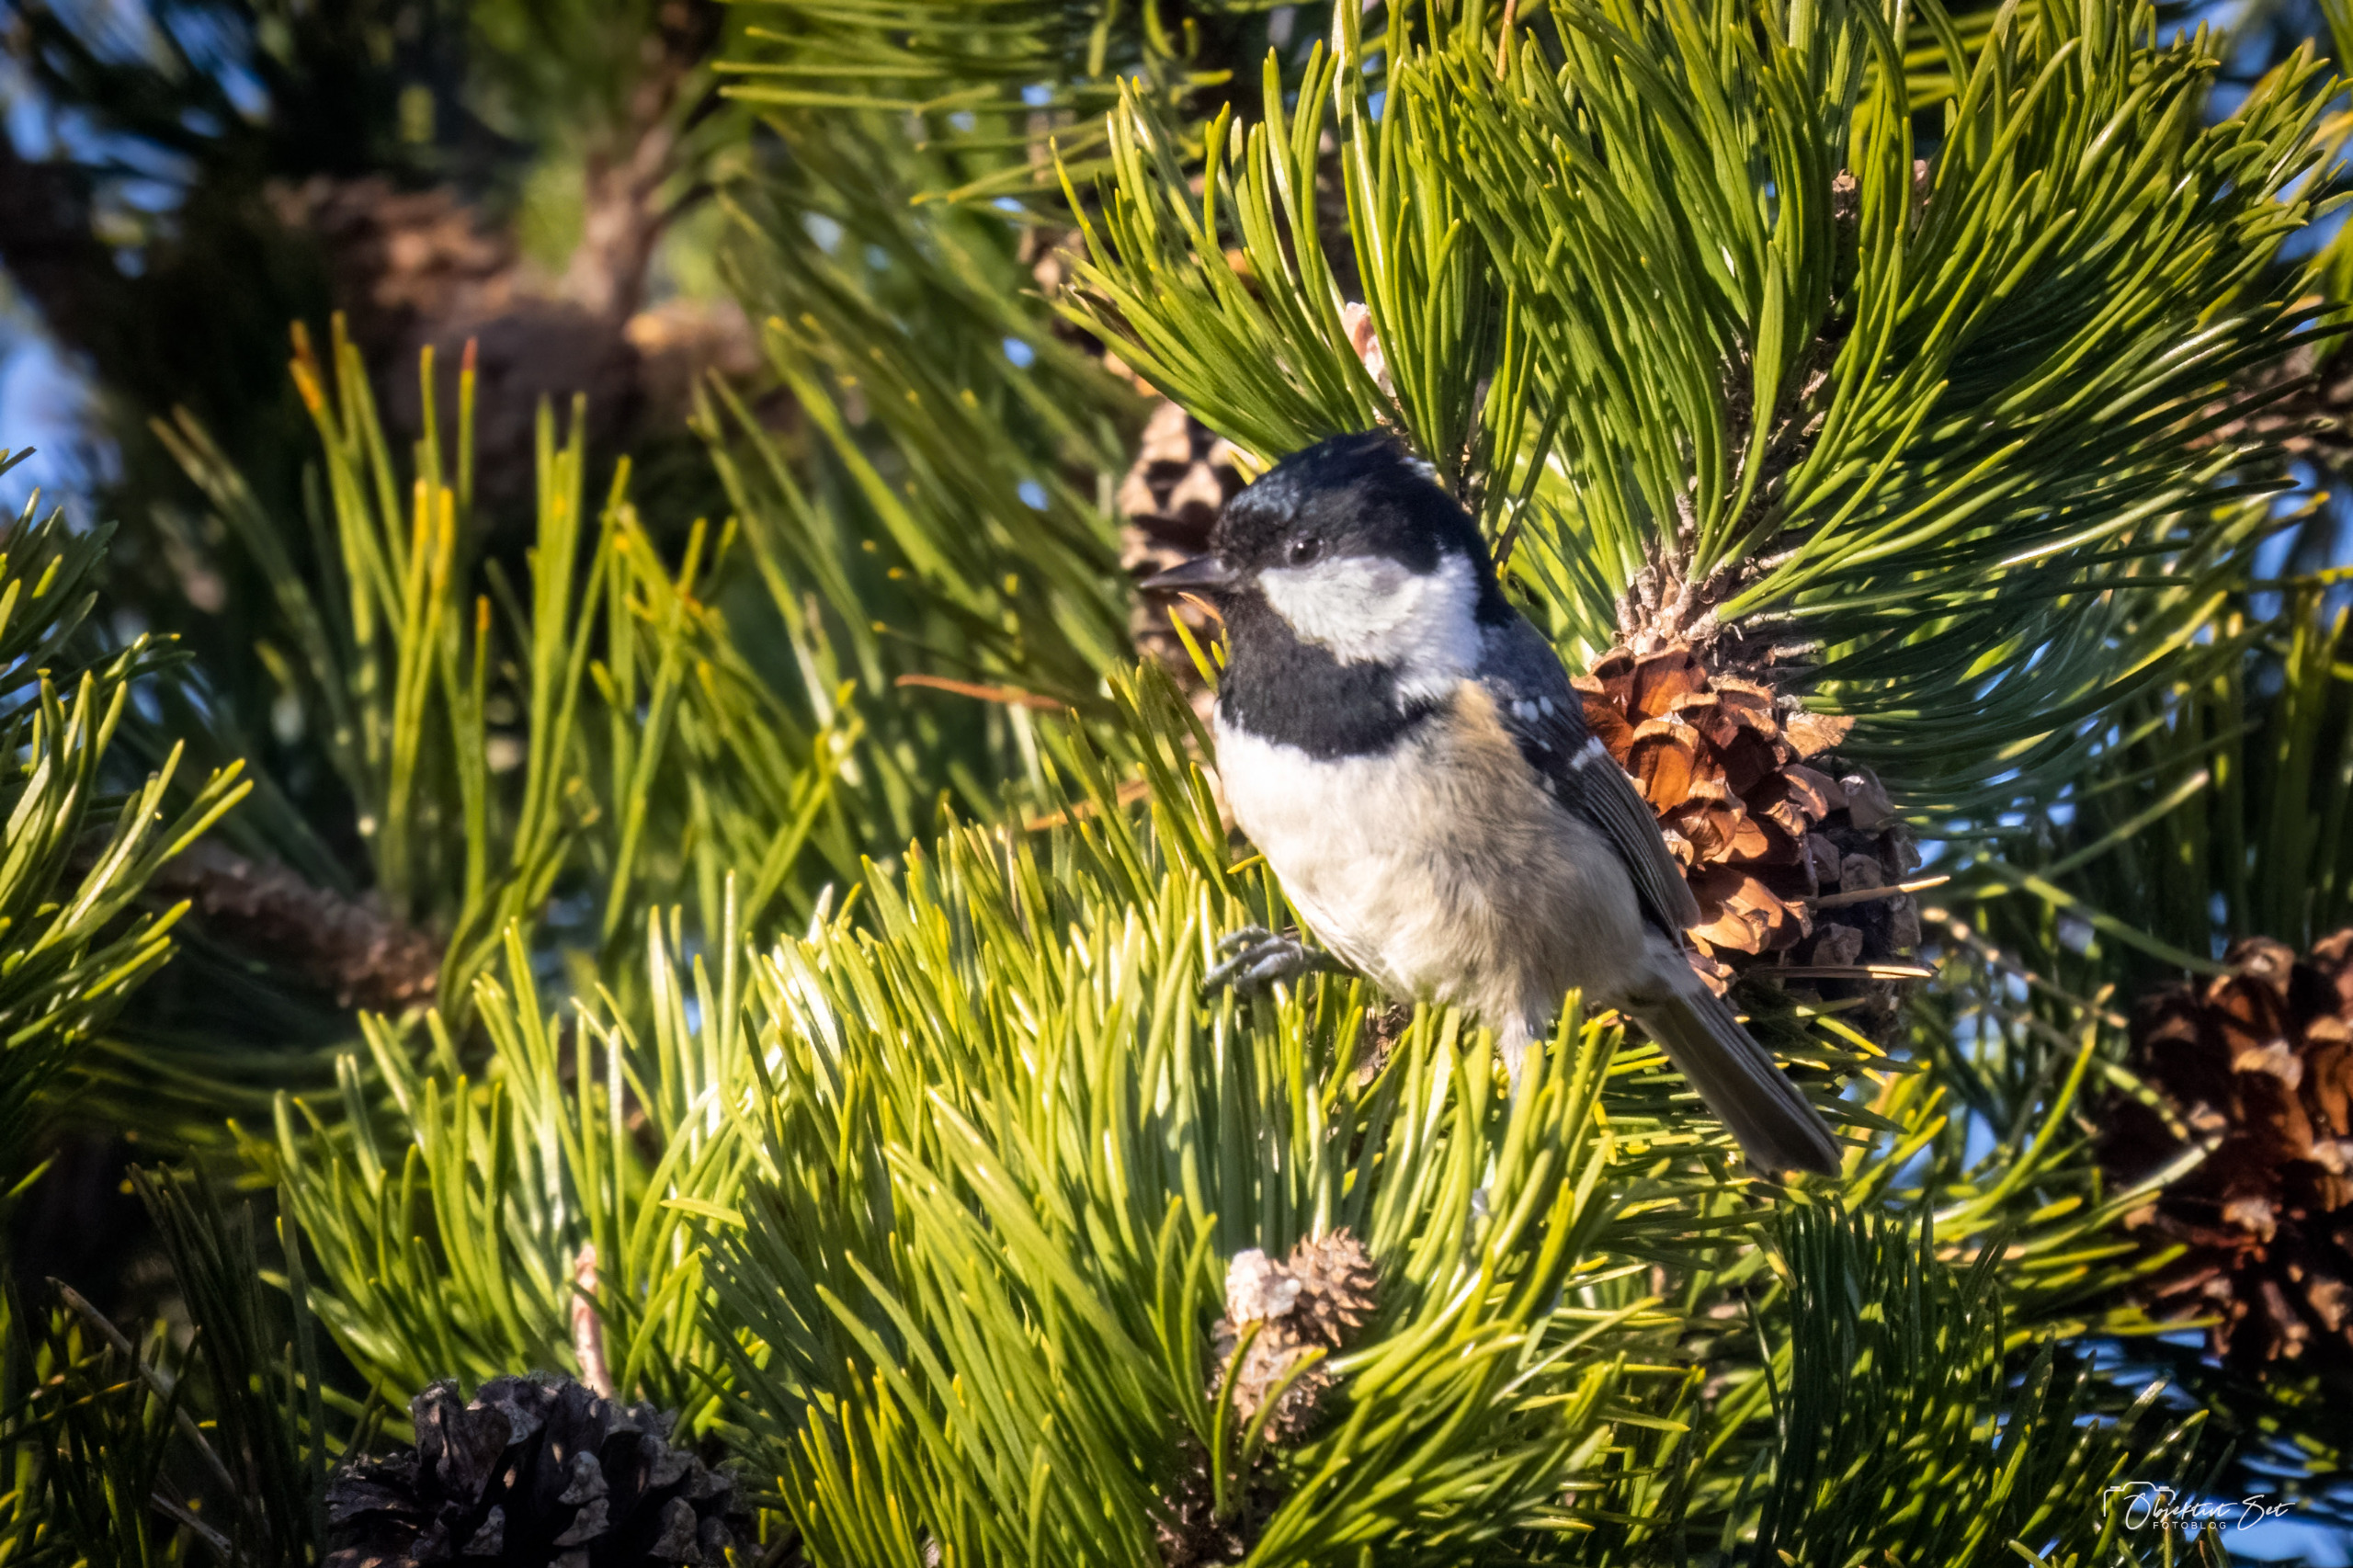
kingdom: Animalia
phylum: Chordata
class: Aves
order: Passeriformes
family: Paridae
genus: Periparus
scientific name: Periparus ater
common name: Sortmejse
